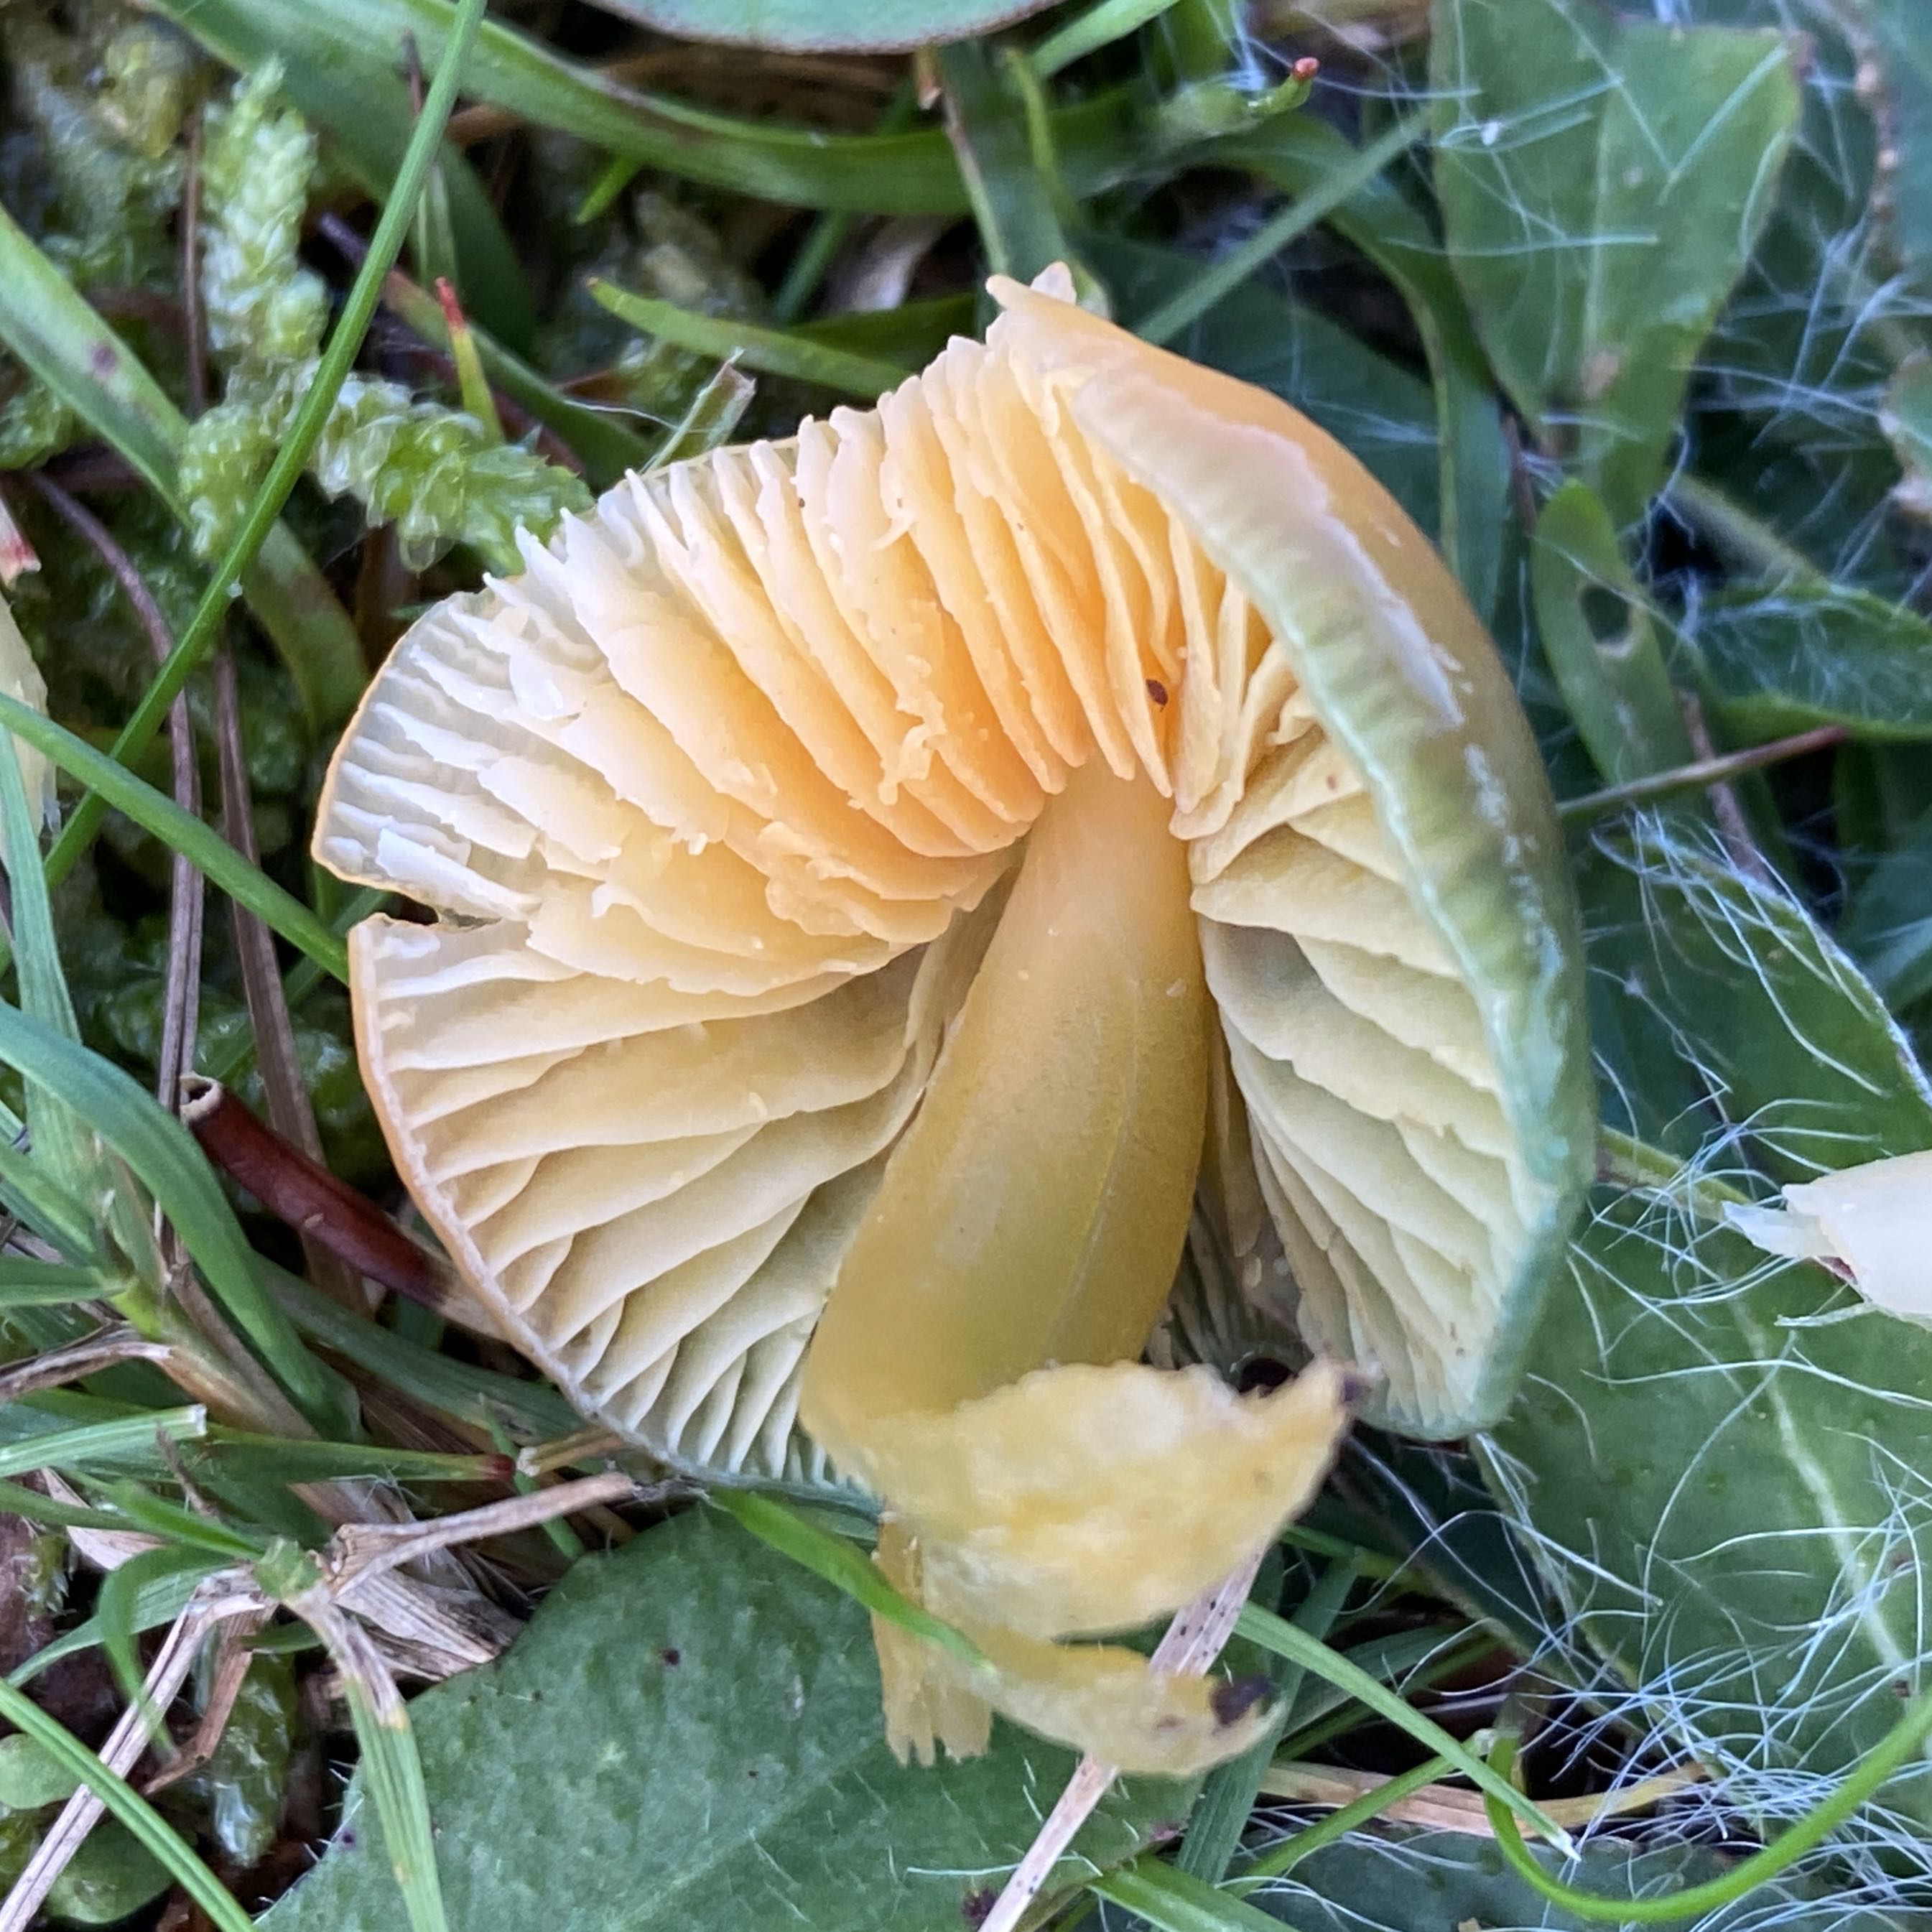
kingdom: Fungi
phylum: Basidiomycota
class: Agaricomycetes
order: Agaricales
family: Hygrophoraceae
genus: Gliophorus
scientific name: Gliophorus psittacinus
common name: papegøje-vokshat
